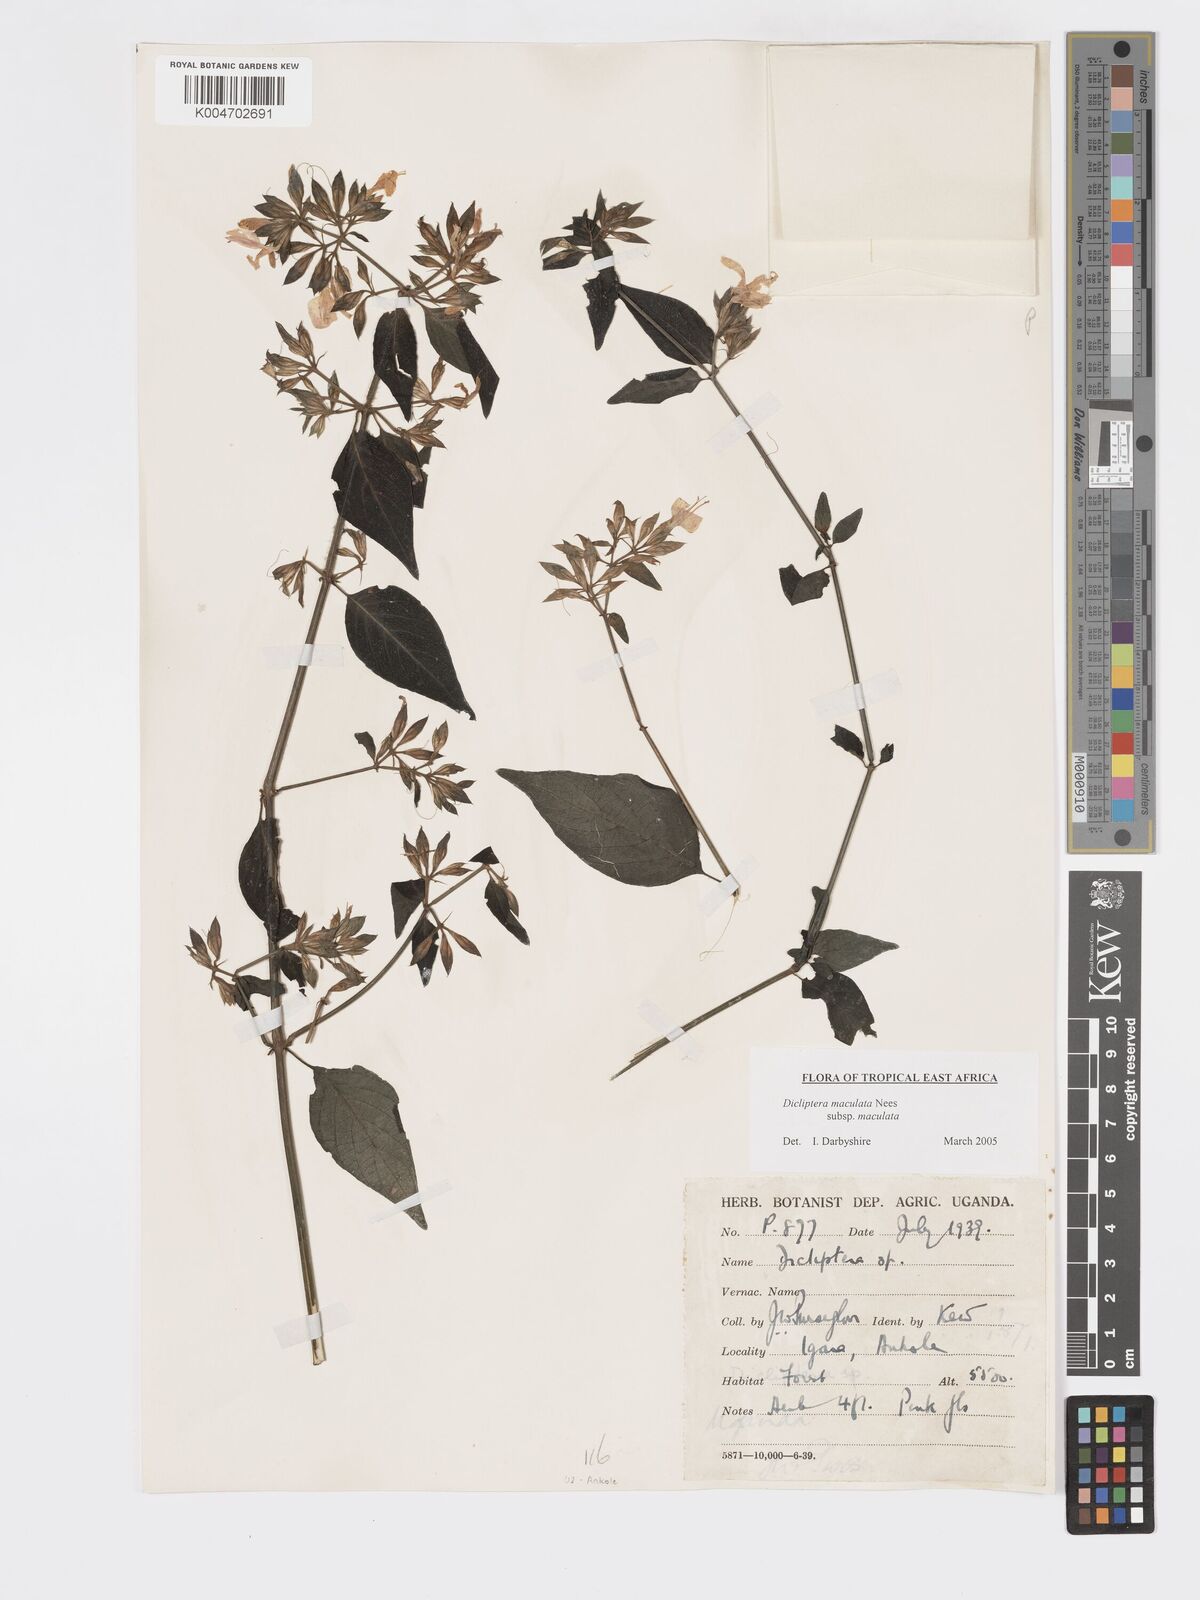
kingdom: Plantae
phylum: Tracheophyta
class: Magnoliopsida
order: Lamiales
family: Acanthaceae
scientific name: Acanthaceae
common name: Acanthaceae
